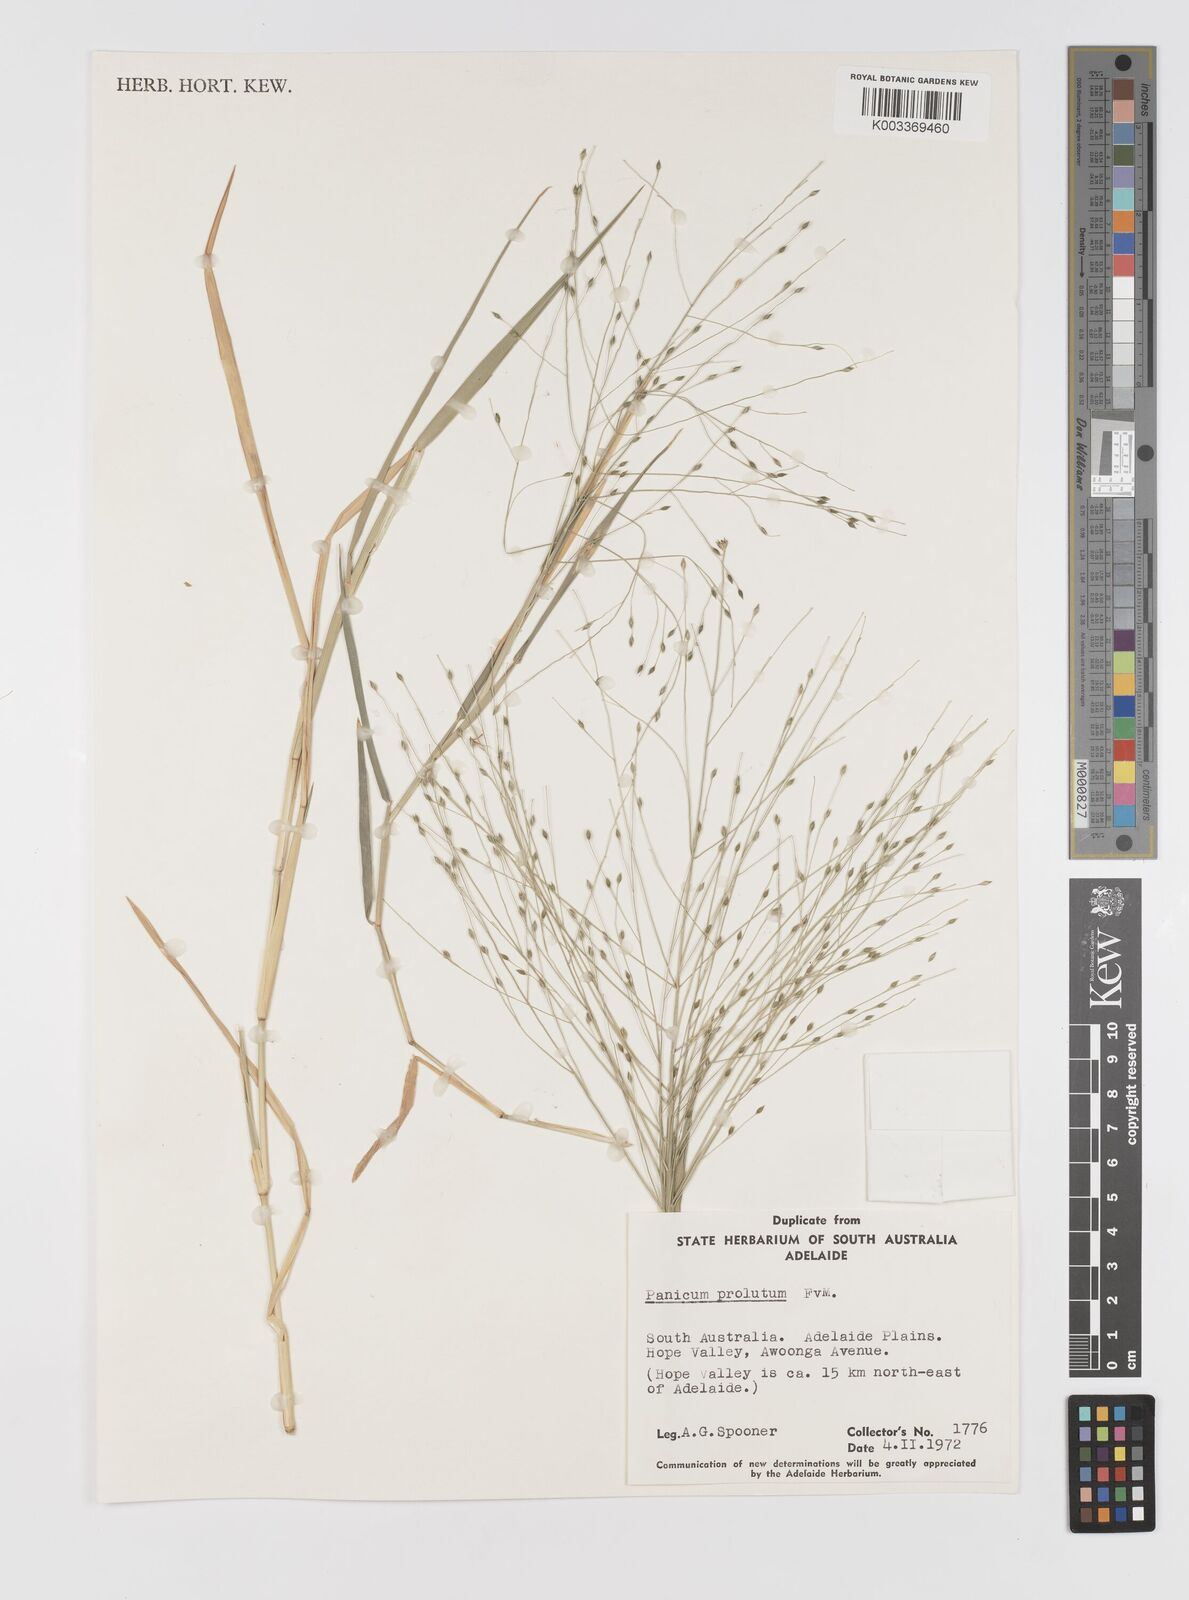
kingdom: Plantae
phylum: Tracheophyta
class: Liliopsida
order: Poales
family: Poaceae
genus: Walwhalleya
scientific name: Walwhalleya proluta
